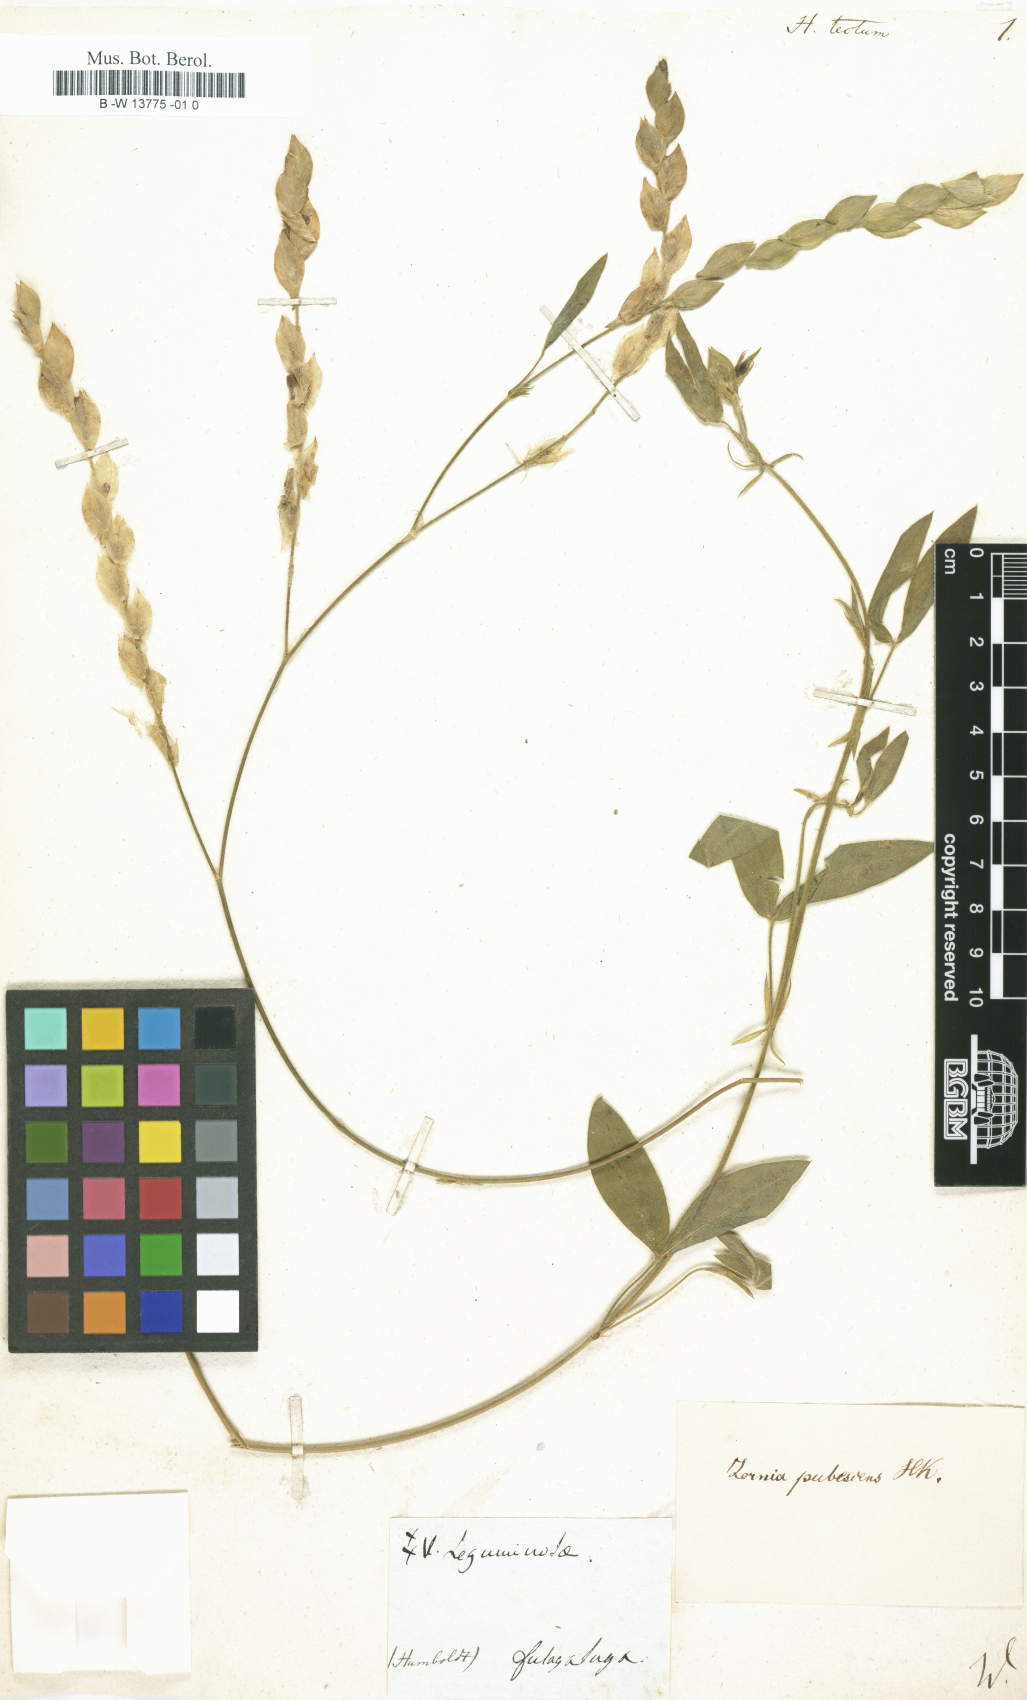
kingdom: Plantae
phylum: Tracheophyta
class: Magnoliopsida
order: Fabales
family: Fabaceae
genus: Hedysarum
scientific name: Hedysarum
